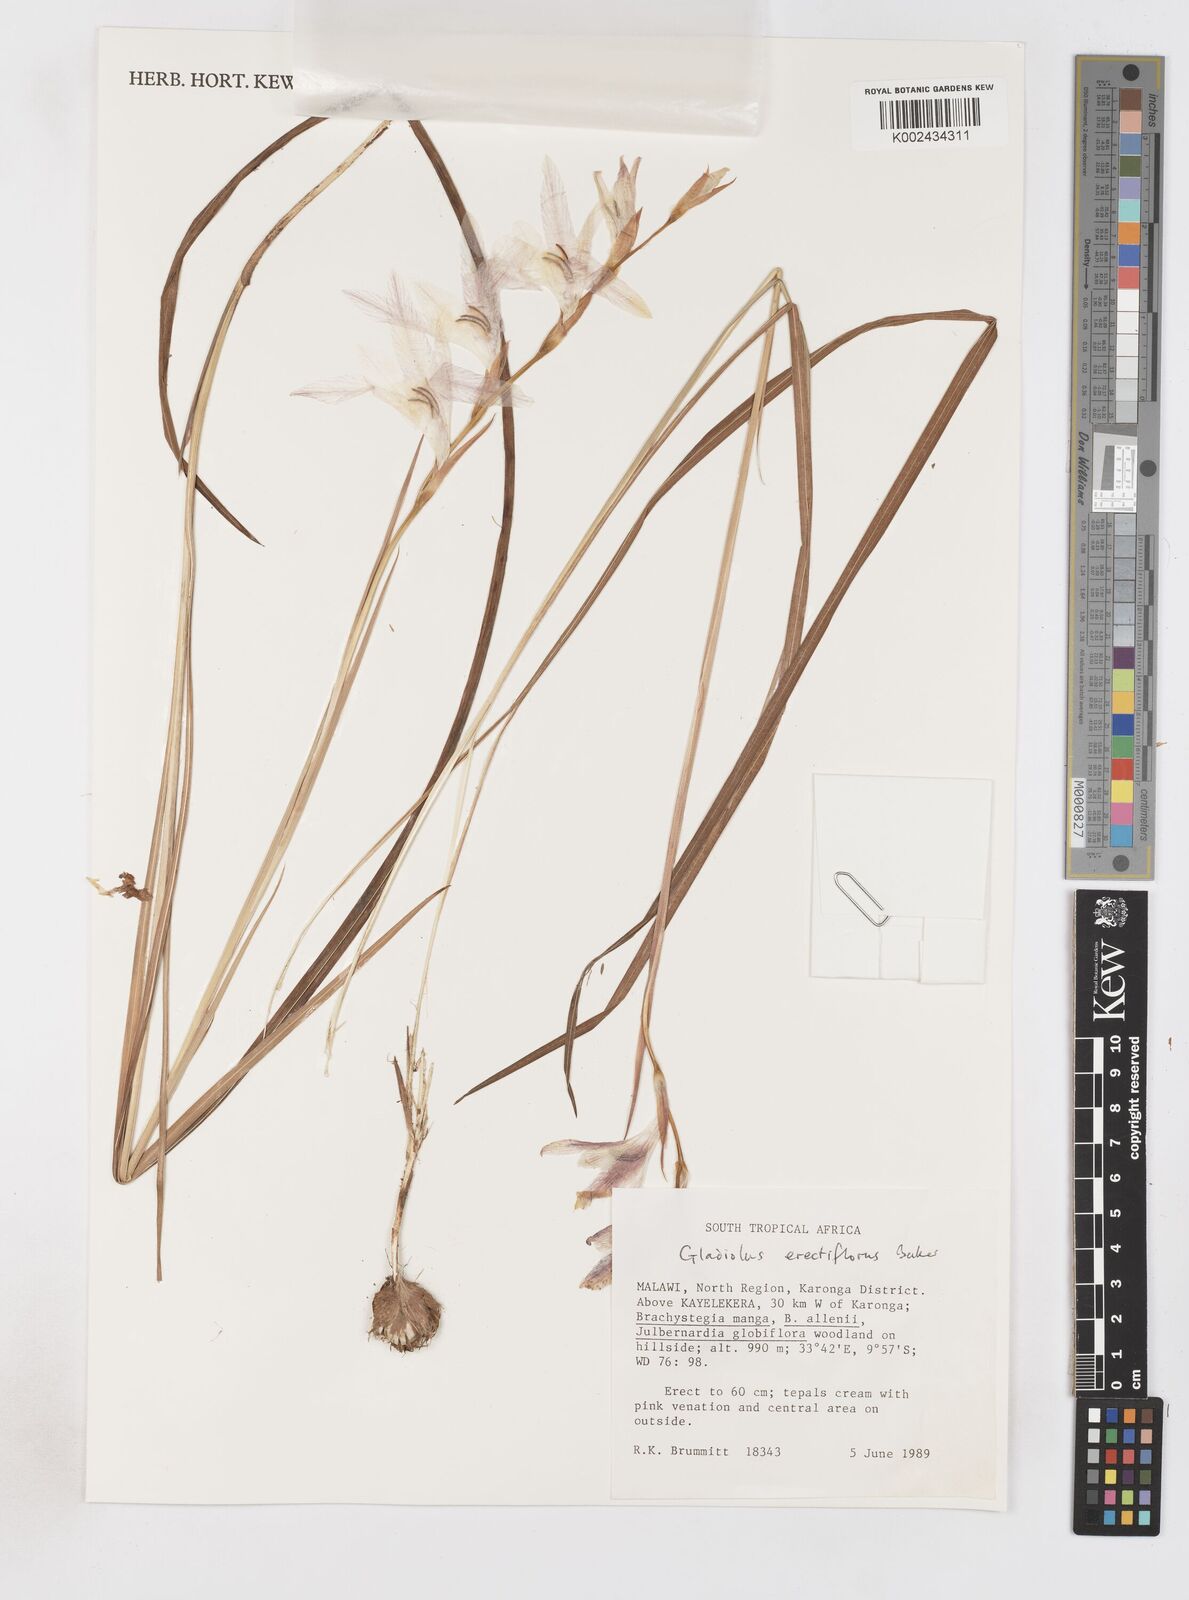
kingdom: Plantae
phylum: Tracheophyta
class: Liliopsida
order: Asparagales
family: Iridaceae
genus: Gladiolus
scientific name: Gladiolus erectiflorus
